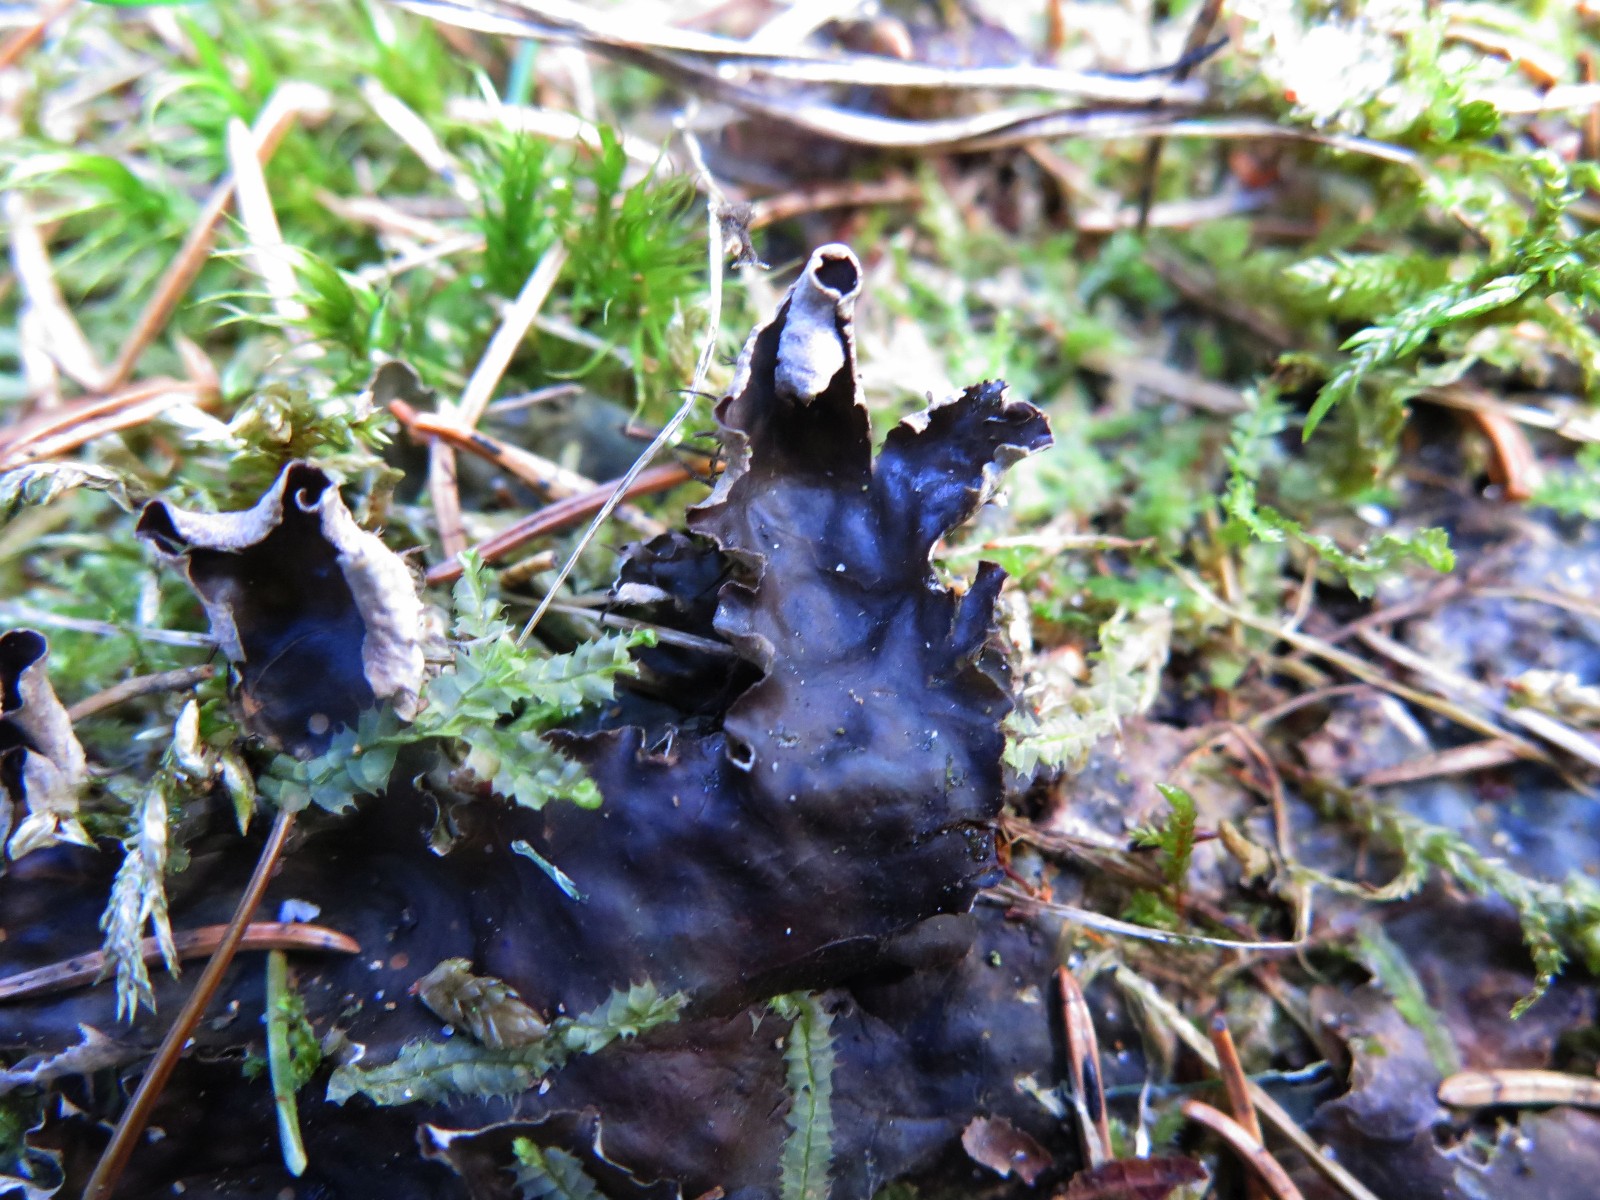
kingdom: Fungi
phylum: Ascomycota
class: Lecanoromycetes
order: Peltigerales
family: Peltigeraceae
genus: Peltigera
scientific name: Peltigera hymenina
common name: hinde-skjoldlav
